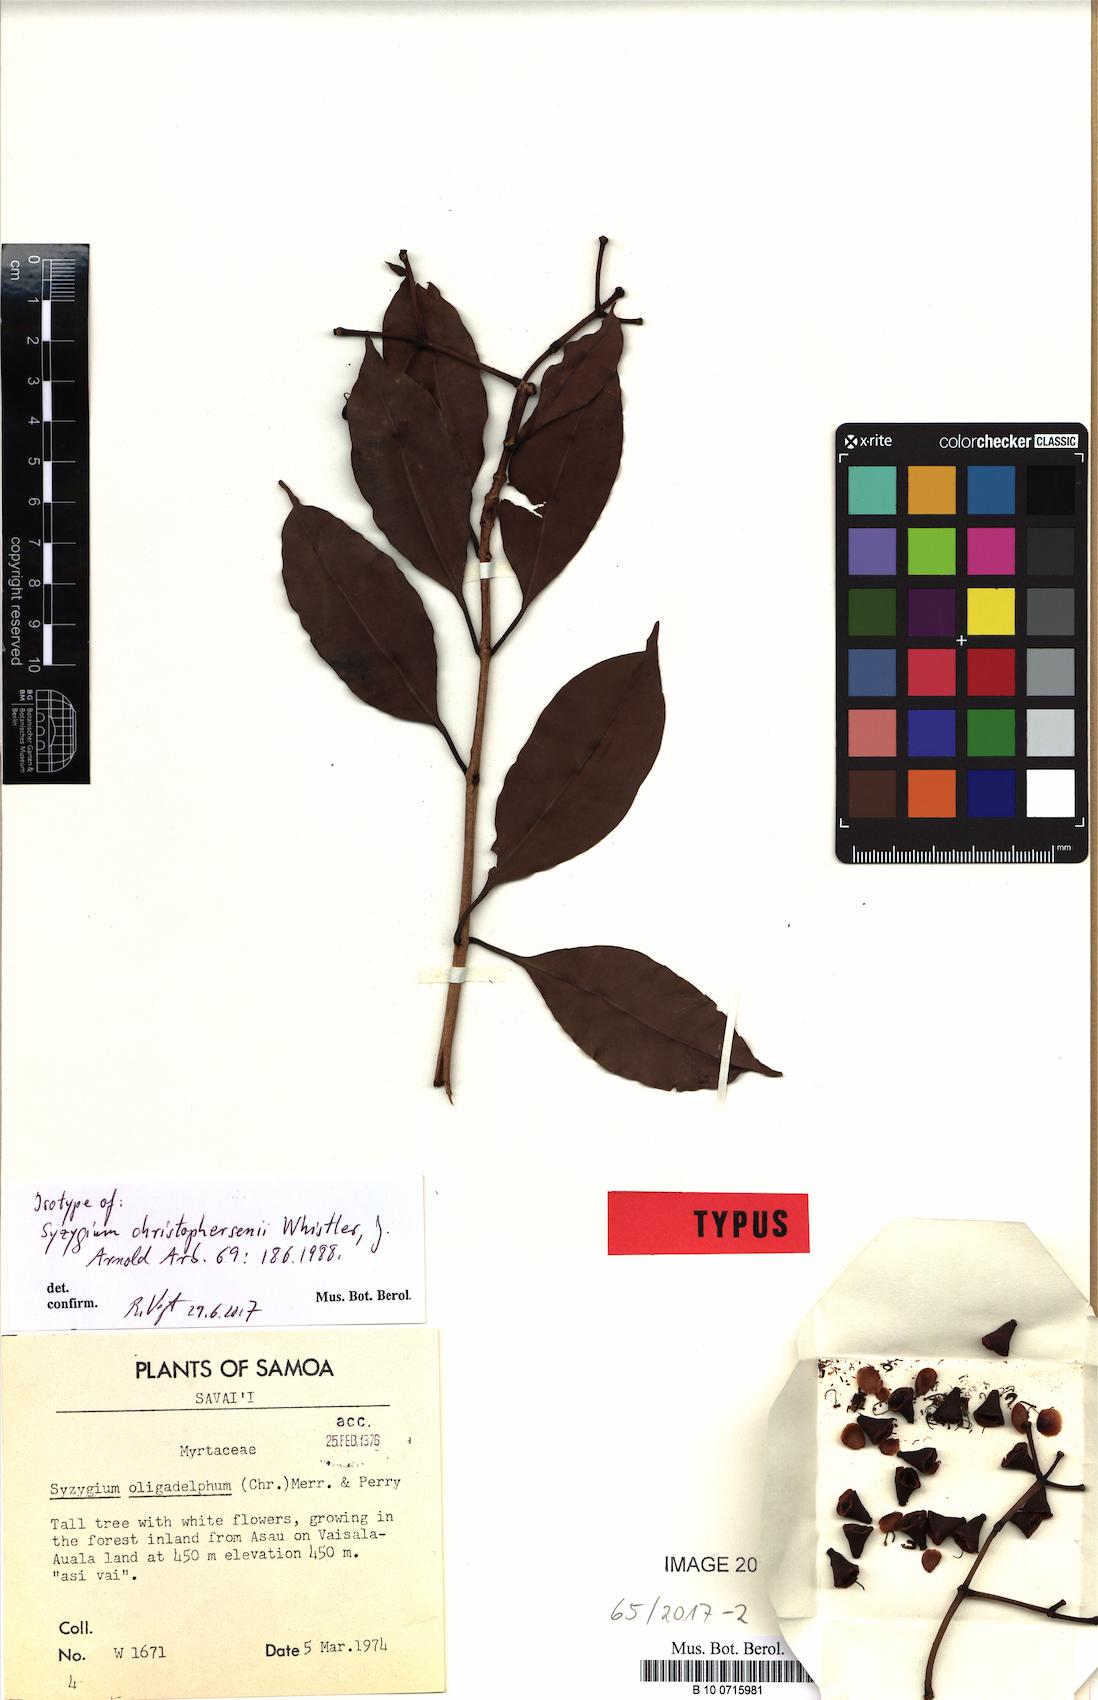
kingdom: Plantae
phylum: Tracheophyta
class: Magnoliopsida
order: Myrtales
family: Myrtaceae
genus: Syzygium
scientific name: Syzygium christophersenii
